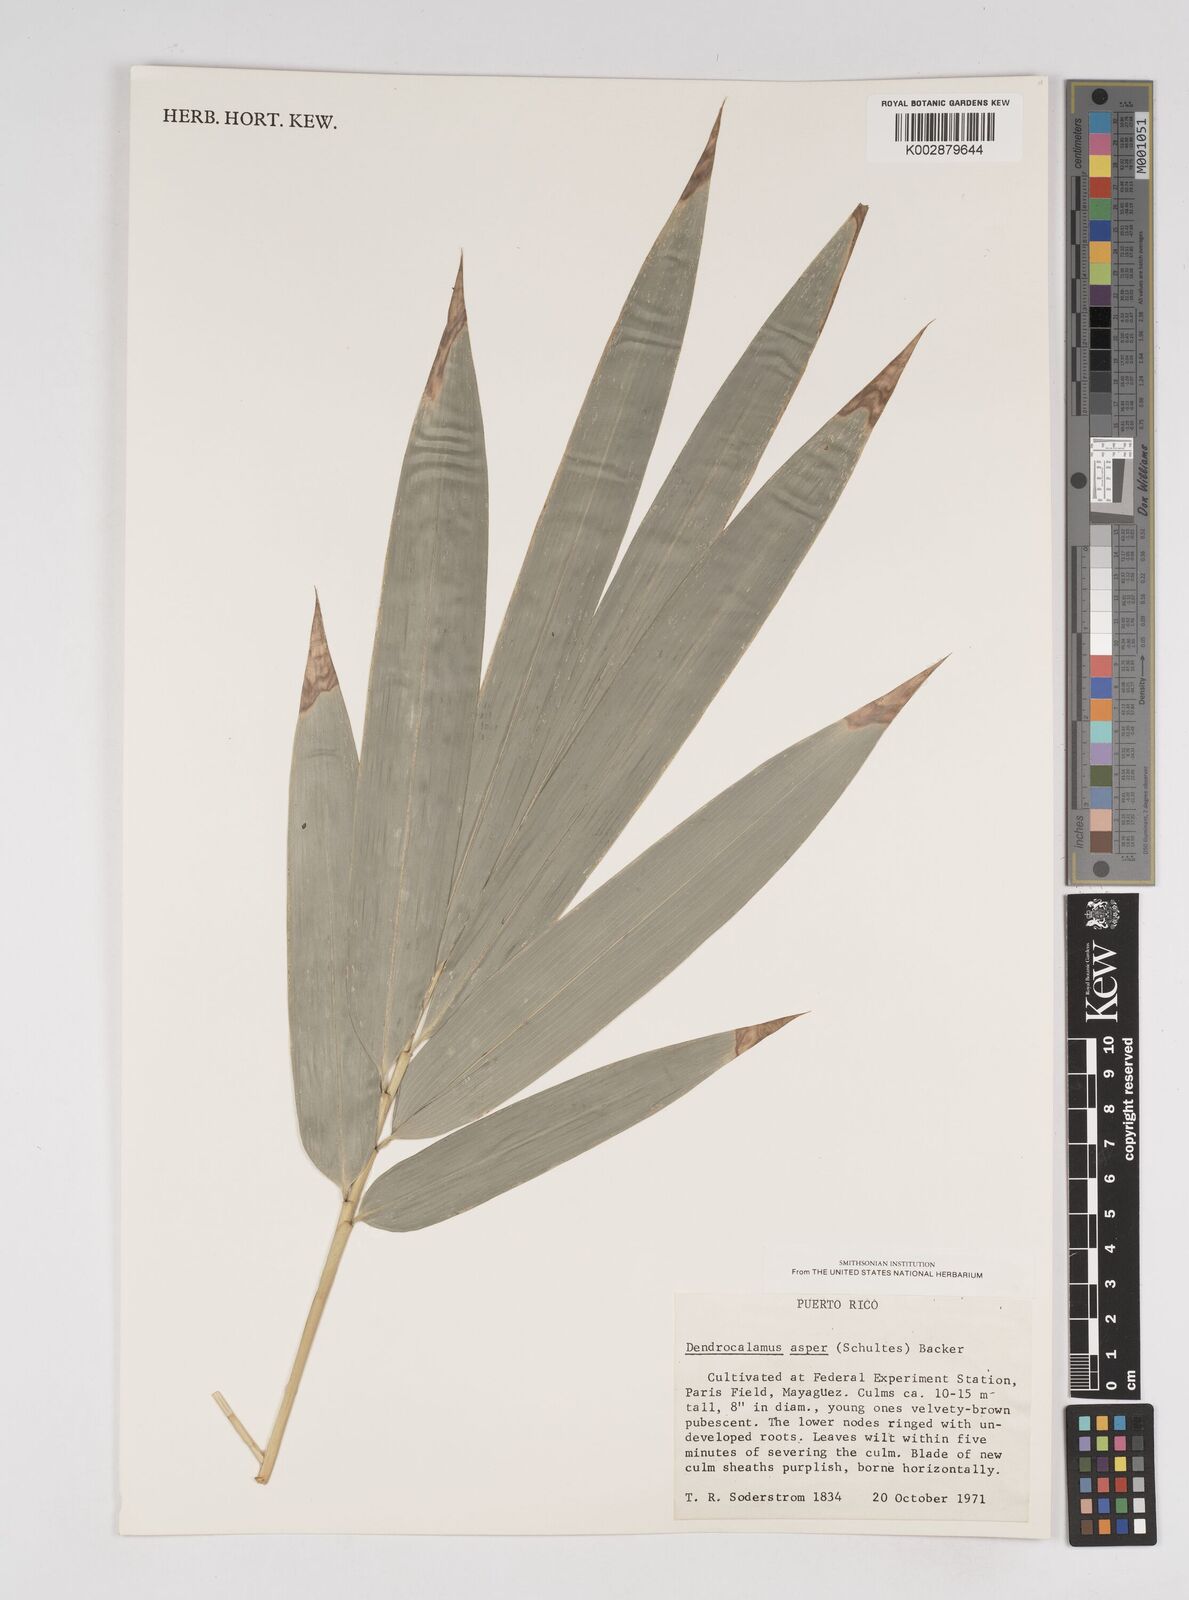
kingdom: Plantae
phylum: Tracheophyta
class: Liliopsida
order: Poales
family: Poaceae
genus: Dendrocalamus
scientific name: Dendrocalamus asper
